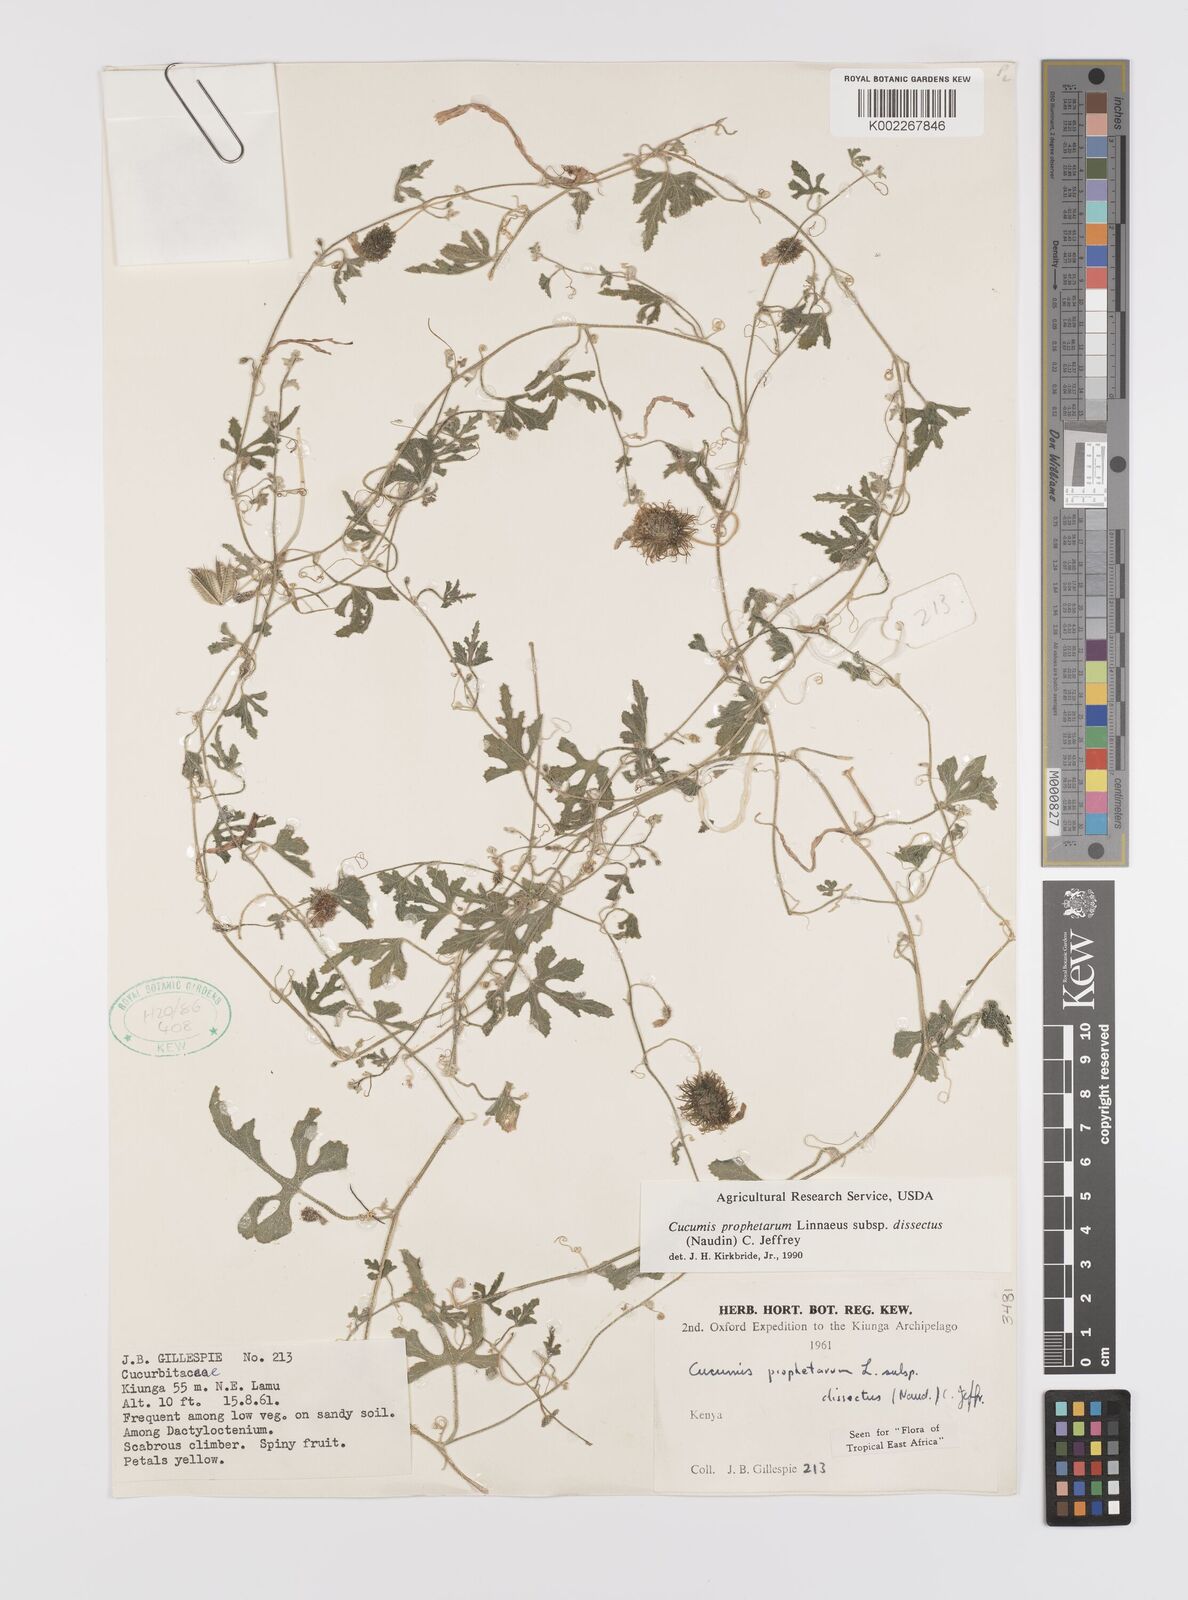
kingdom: Plantae
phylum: Tracheophyta
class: Magnoliopsida
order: Cucurbitales
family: Cucurbitaceae
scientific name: Cucurbitaceae
